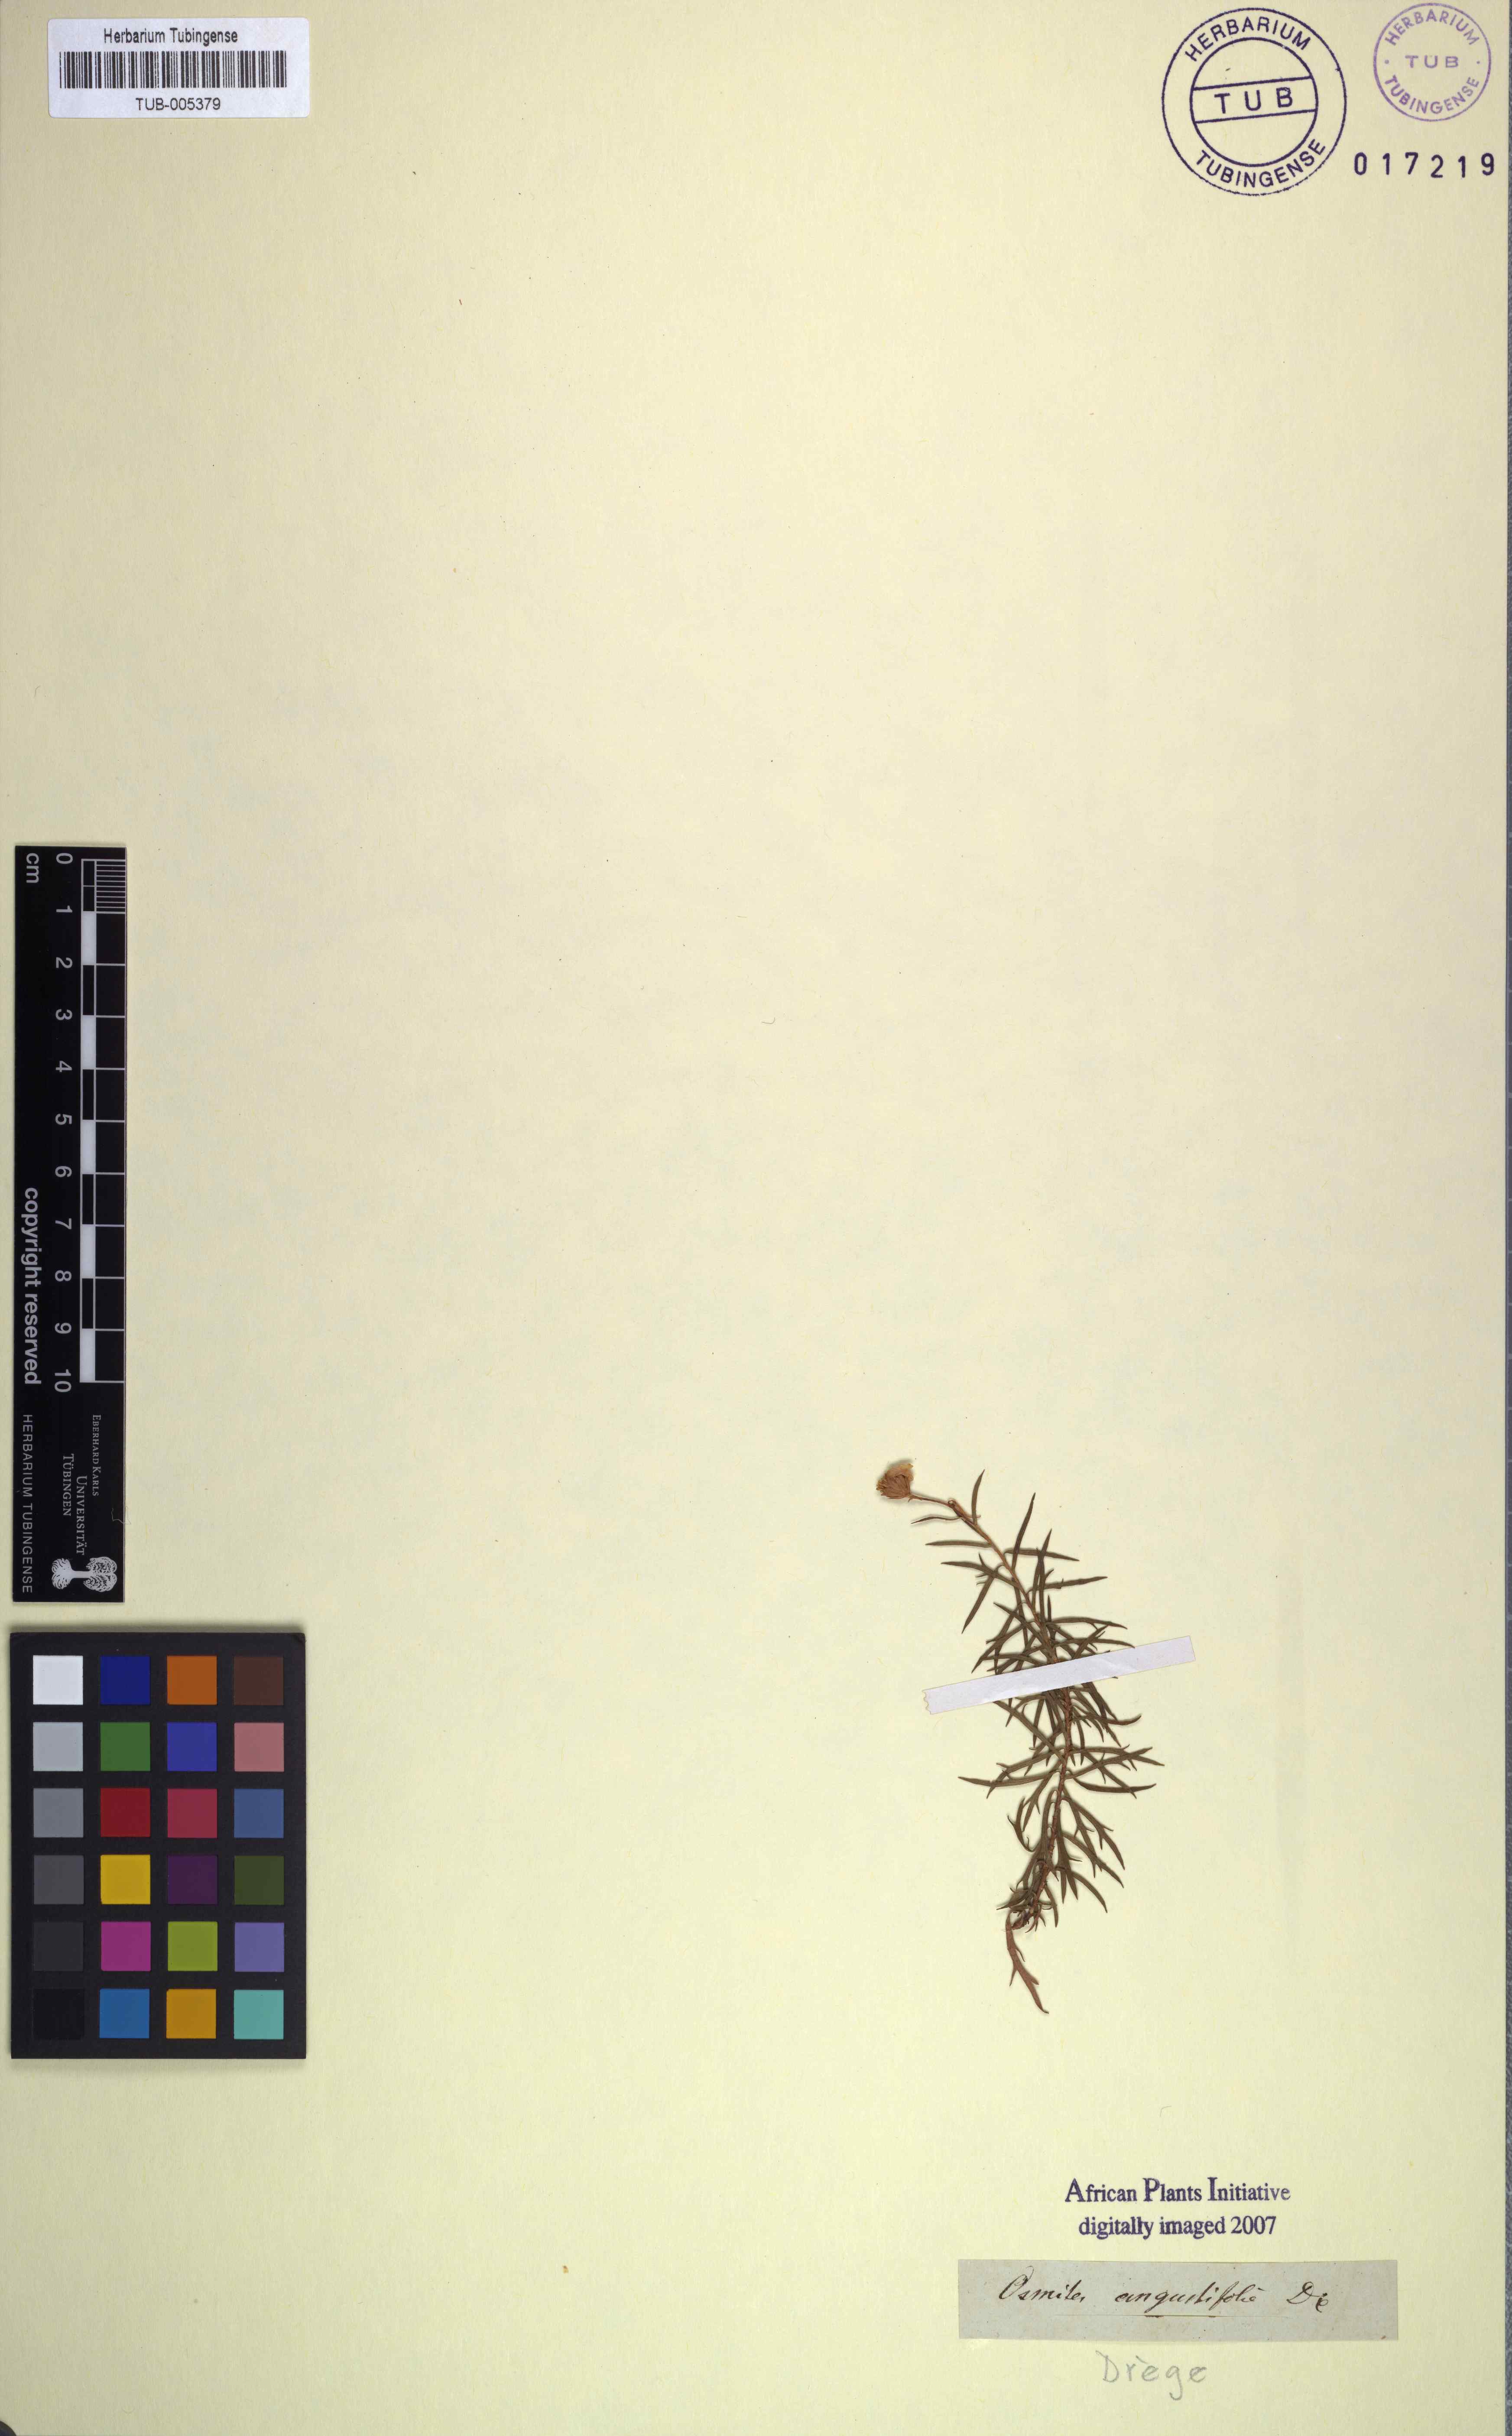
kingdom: Plantae
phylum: Tracheophyta
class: Magnoliopsida
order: Asterales
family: Asteraceae
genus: Osmitopsis
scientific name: Osmitopsis pinnatifida
